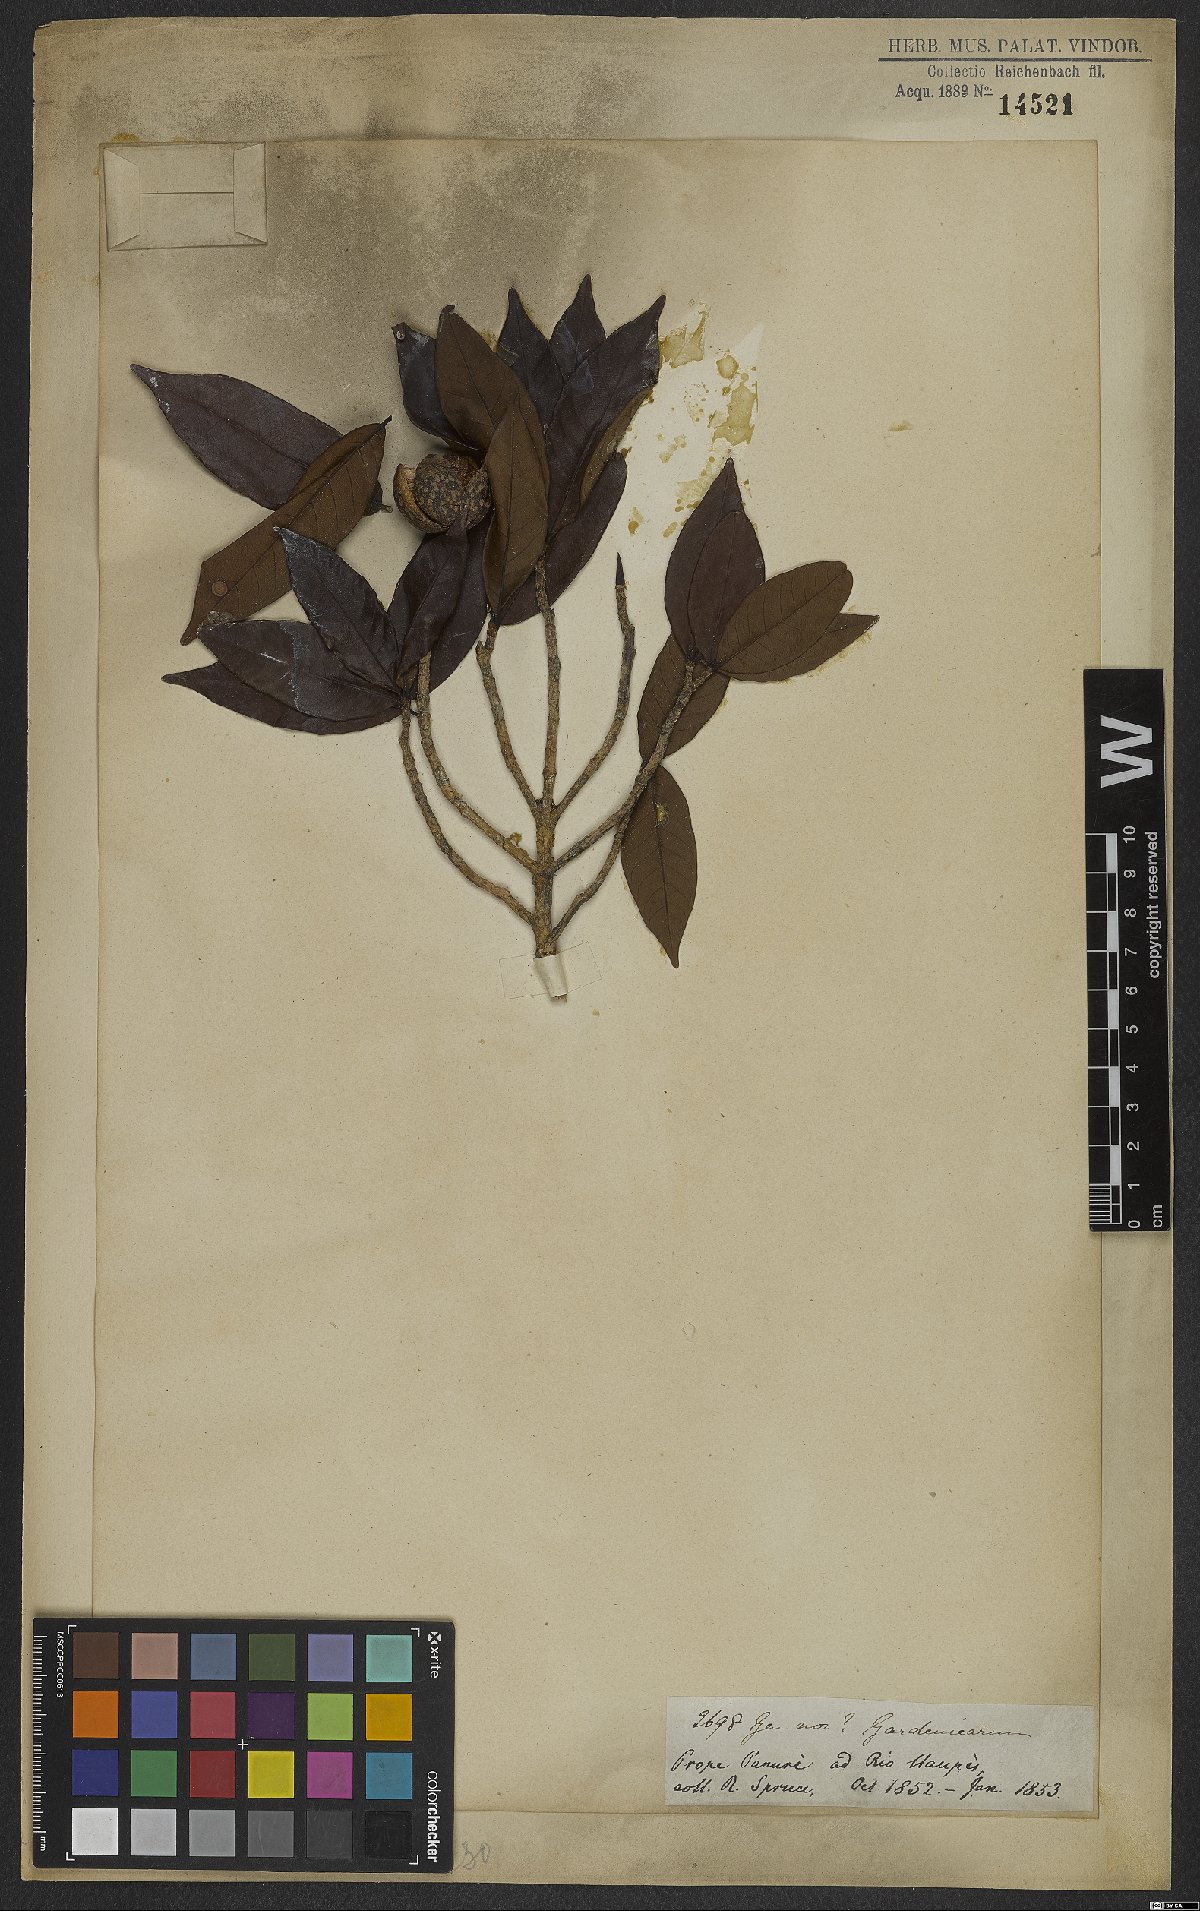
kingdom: Plantae
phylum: Tracheophyta
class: Magnoliopsida
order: Gentianales
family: Rubiaceae
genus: Simira
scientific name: Simira
